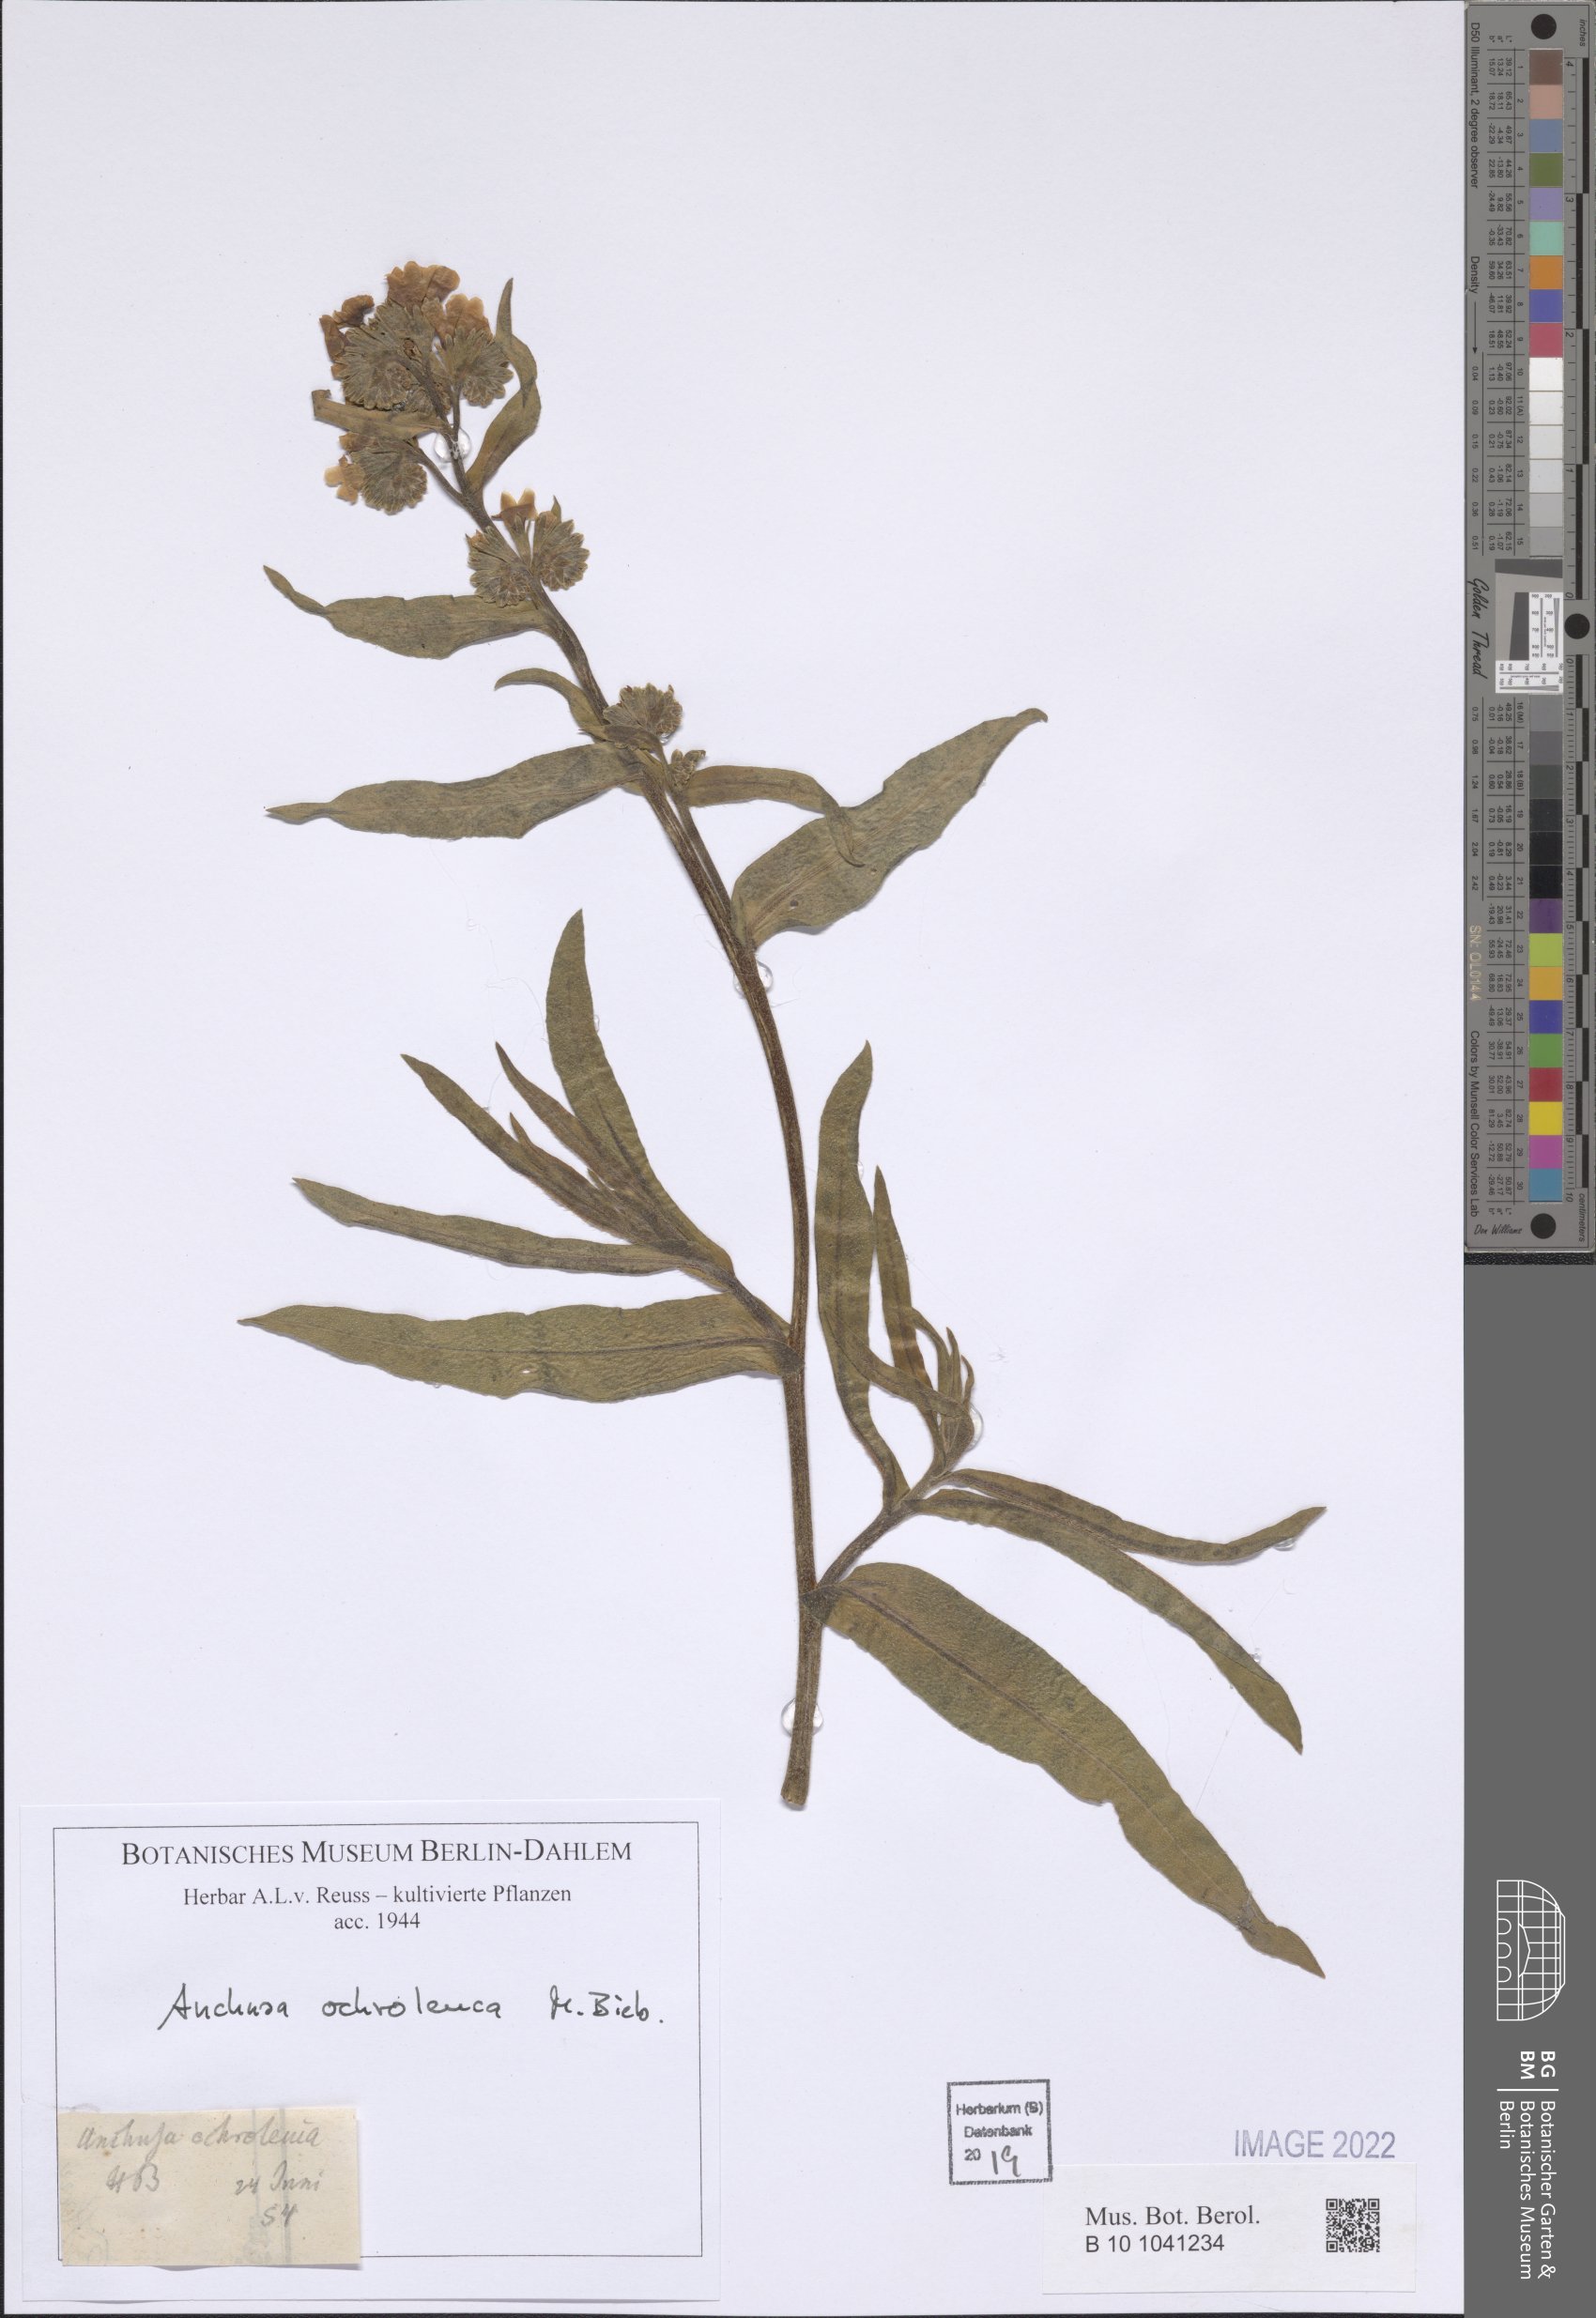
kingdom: Plantae
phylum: Tracheophyta
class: Magnoliopsida
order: Boraginales
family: Boraginaceae
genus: Anchusa
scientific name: Anchusa ochroleuca
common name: Yellow alkanet
